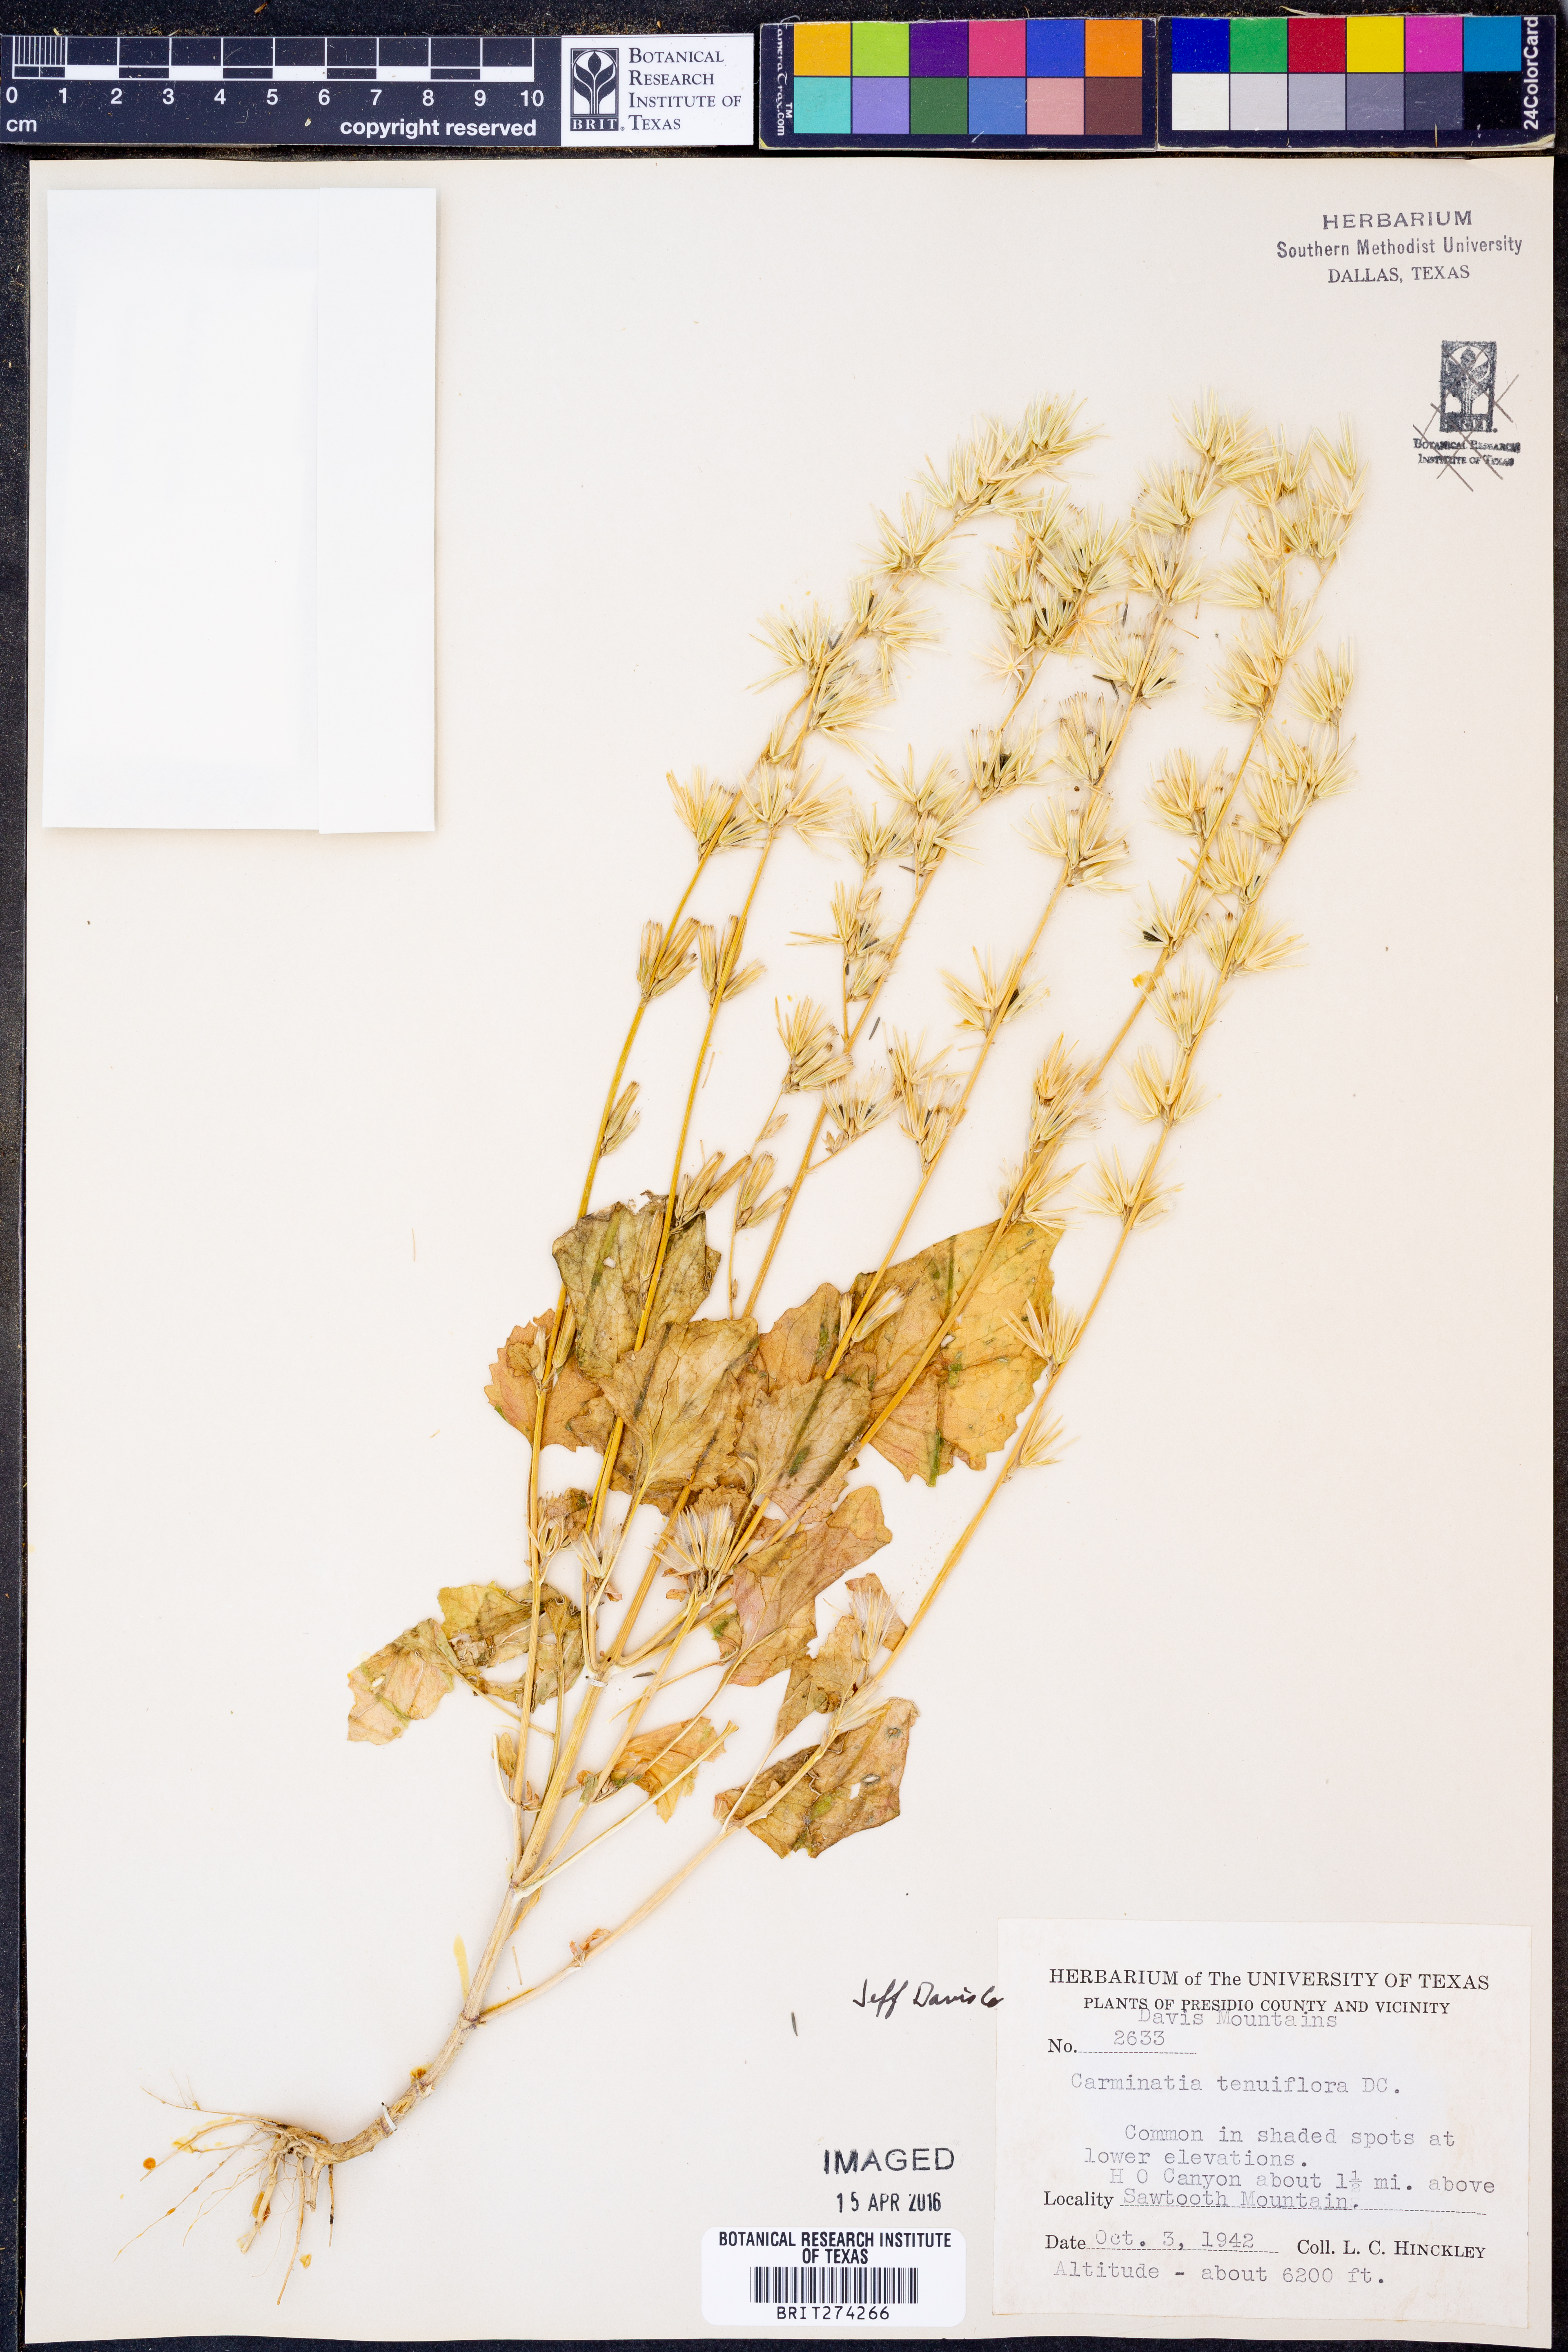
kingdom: Plantae
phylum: Tracheophyta
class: Magnoliopsida
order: Asterales
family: Asteraceae
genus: Carminatia
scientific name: Carminatia tenuiflora
